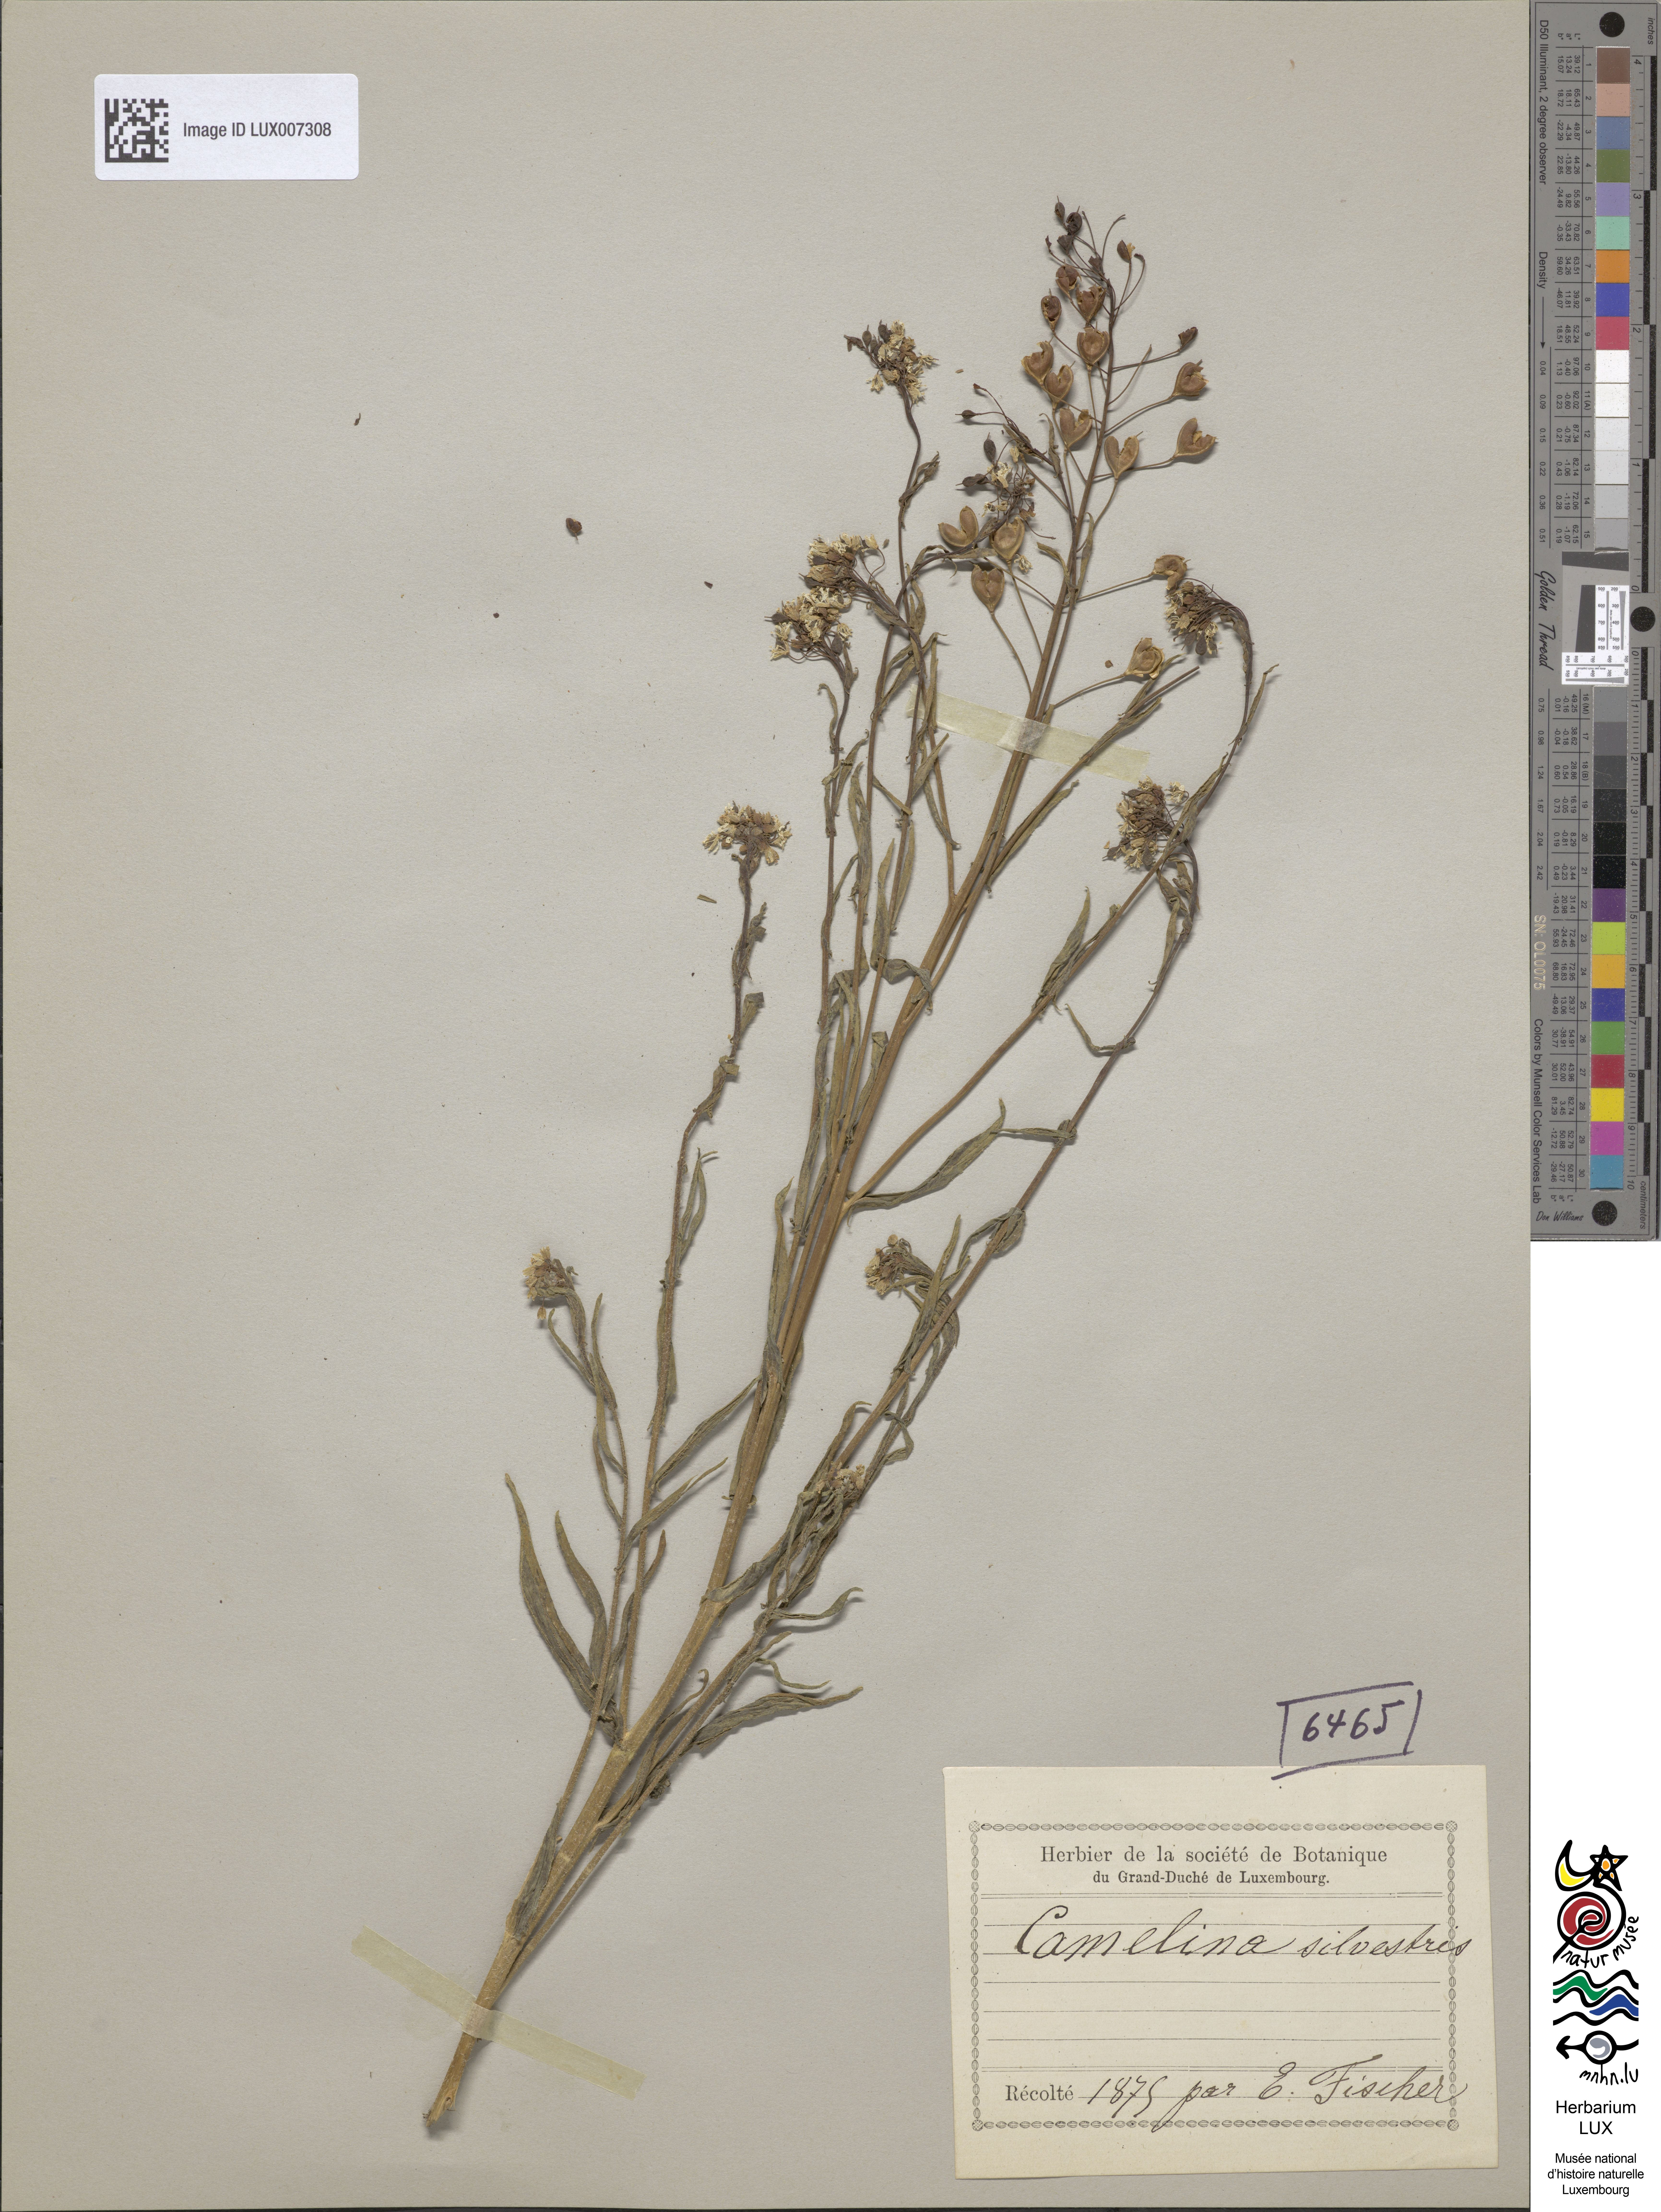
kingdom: Plantae
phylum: Tracheophyta
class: Magnoliopsida
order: Brassicales
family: Brassicaceae
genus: Camelina
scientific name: Camelina microcarpa
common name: Lesser gold-of-pleasure
